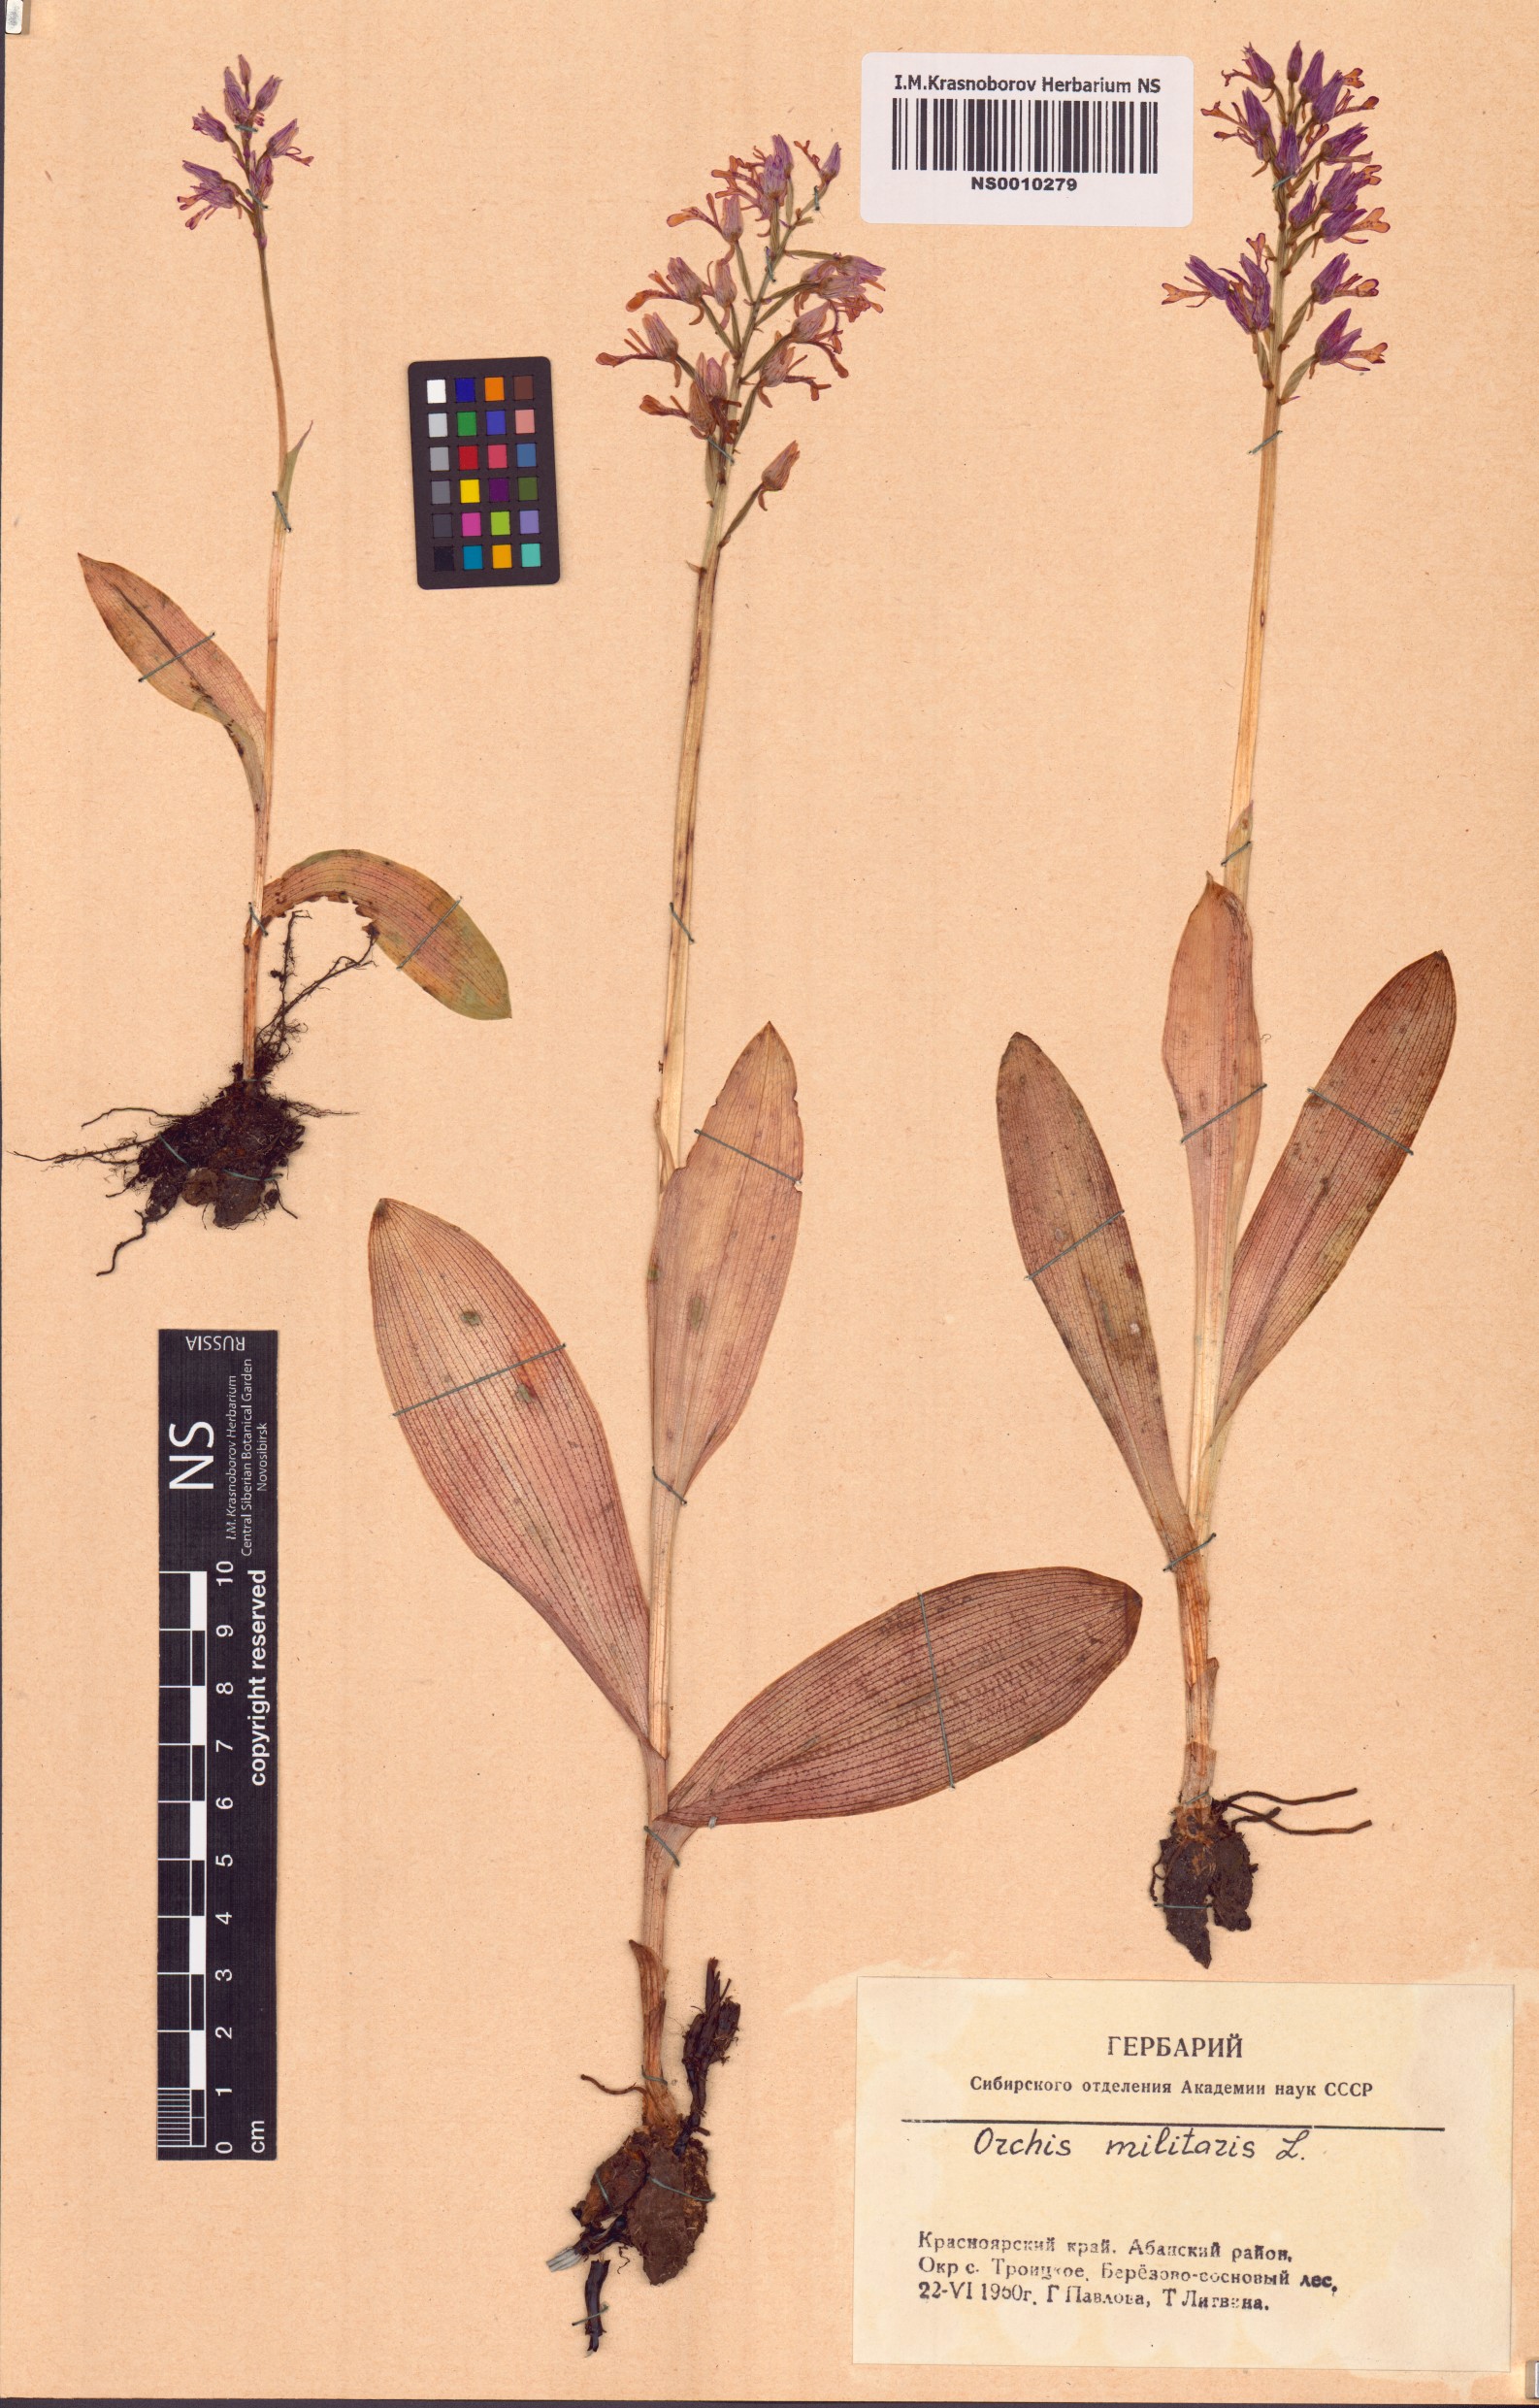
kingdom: Plantae
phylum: Tracheophyta
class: Liliopsida
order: Asparagales
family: Orchidaceae
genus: Orchis
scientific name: Orchis militaris
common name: Military orchid
